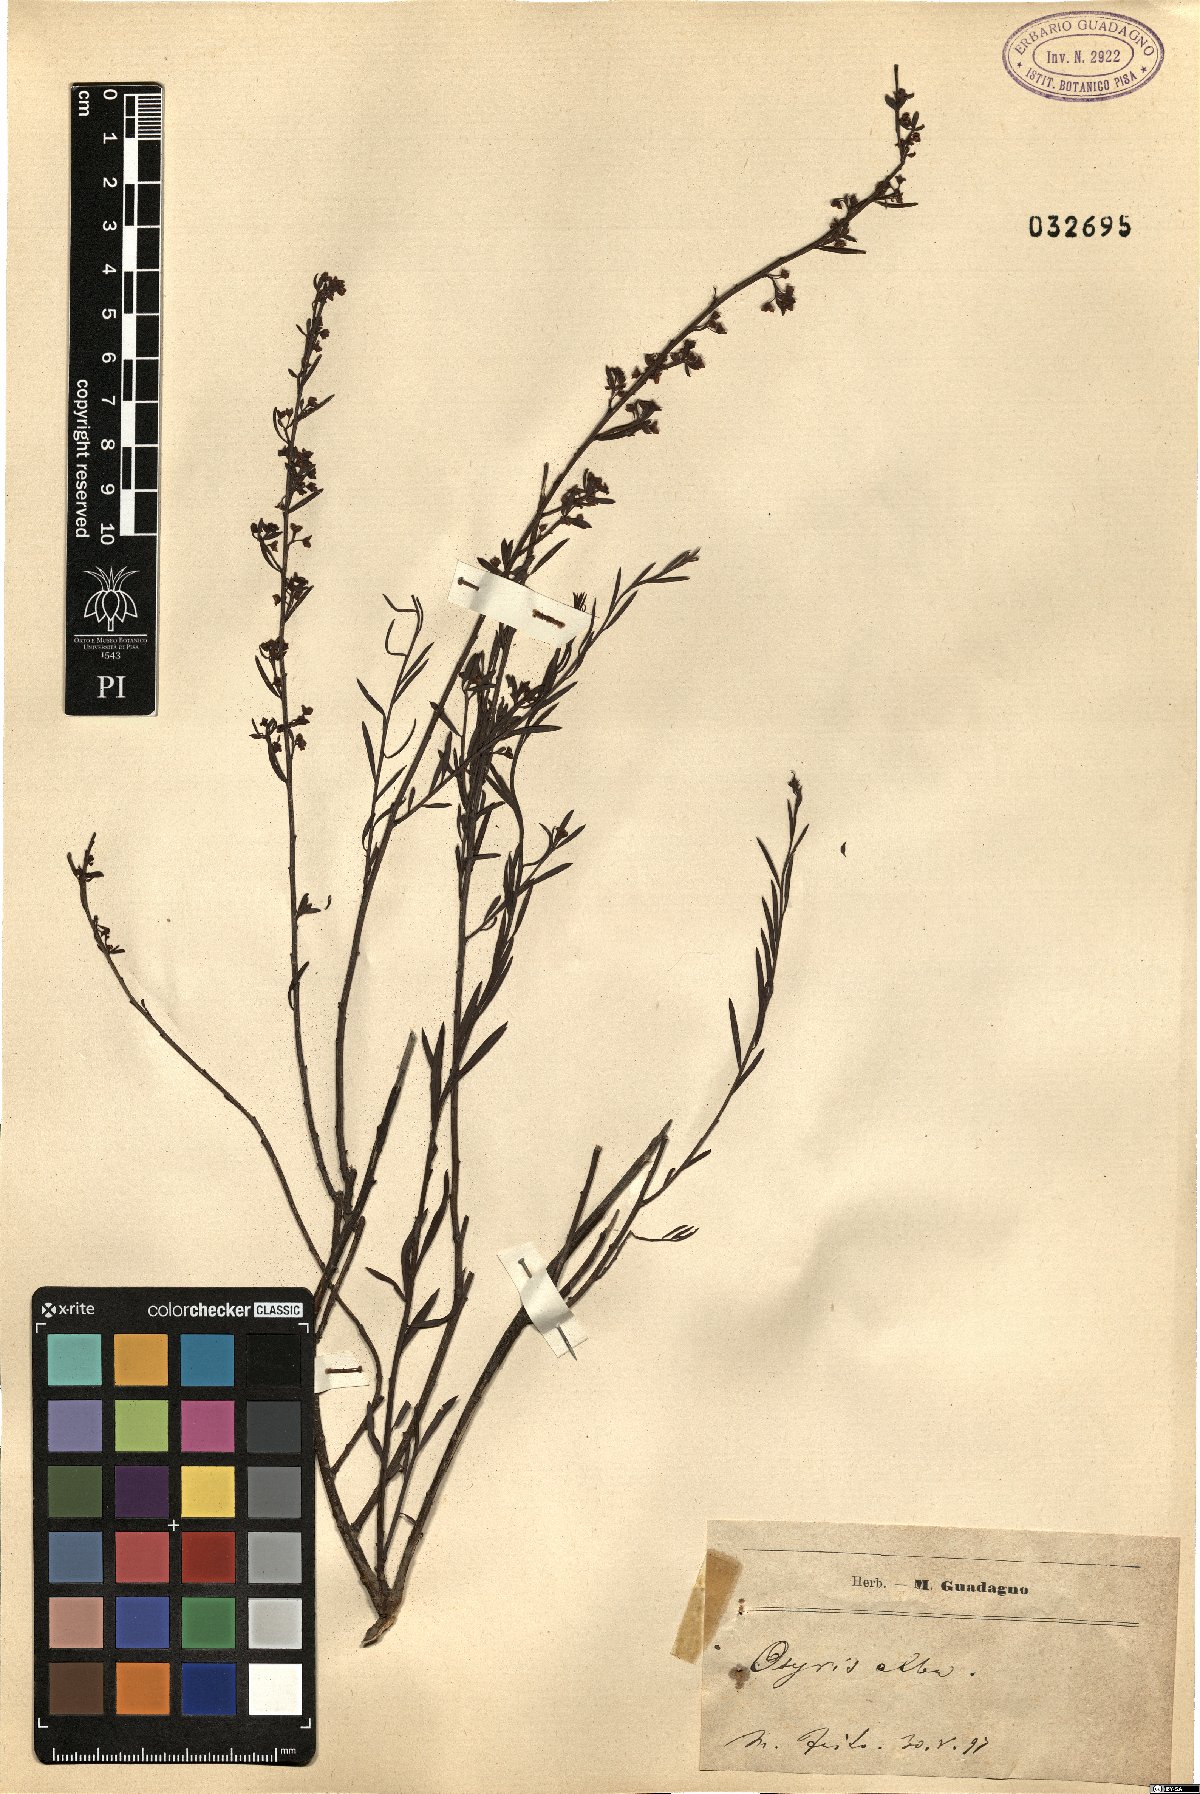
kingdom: Plantae
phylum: Tracheophyta
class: Magnoliopsida
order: Santalales
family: Santalaceae
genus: Osyris
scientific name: Osyris alba
